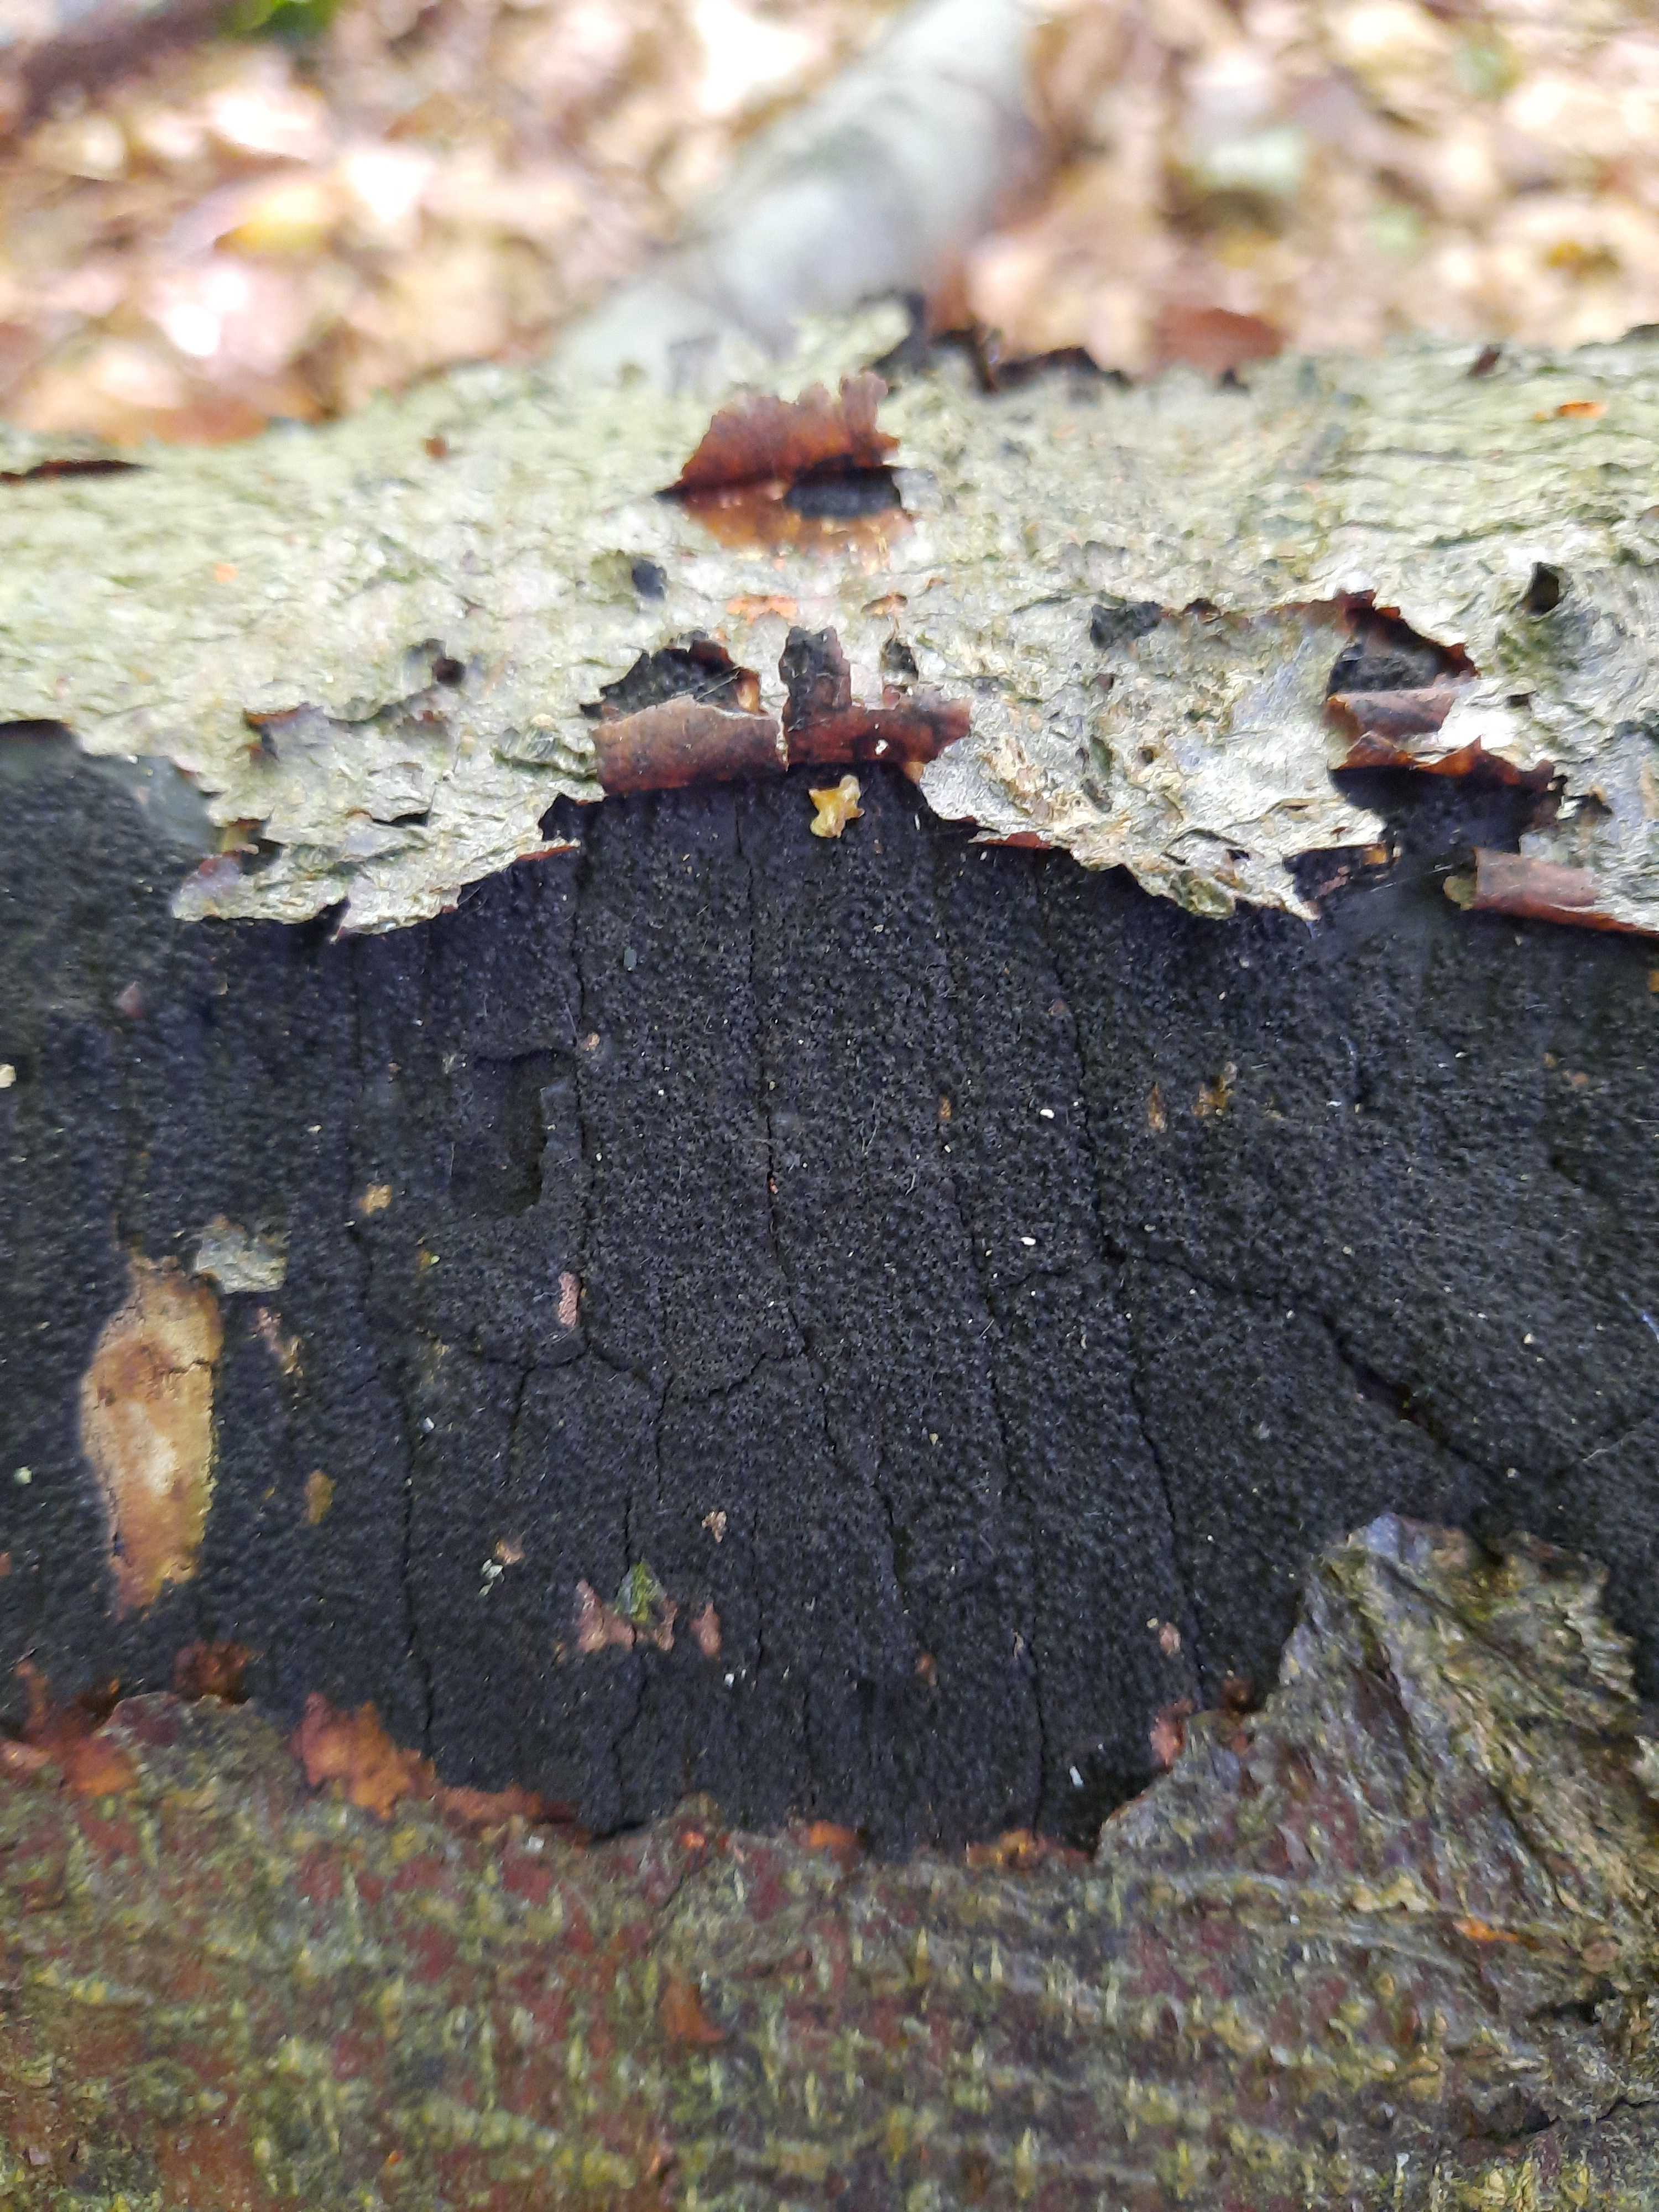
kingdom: Fungi
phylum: Ascomycota
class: Sordariomycetes
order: Xylariales
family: Diatrypaceae
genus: Eutypa
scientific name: Eutypa spinosa
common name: grov kulskorpe
